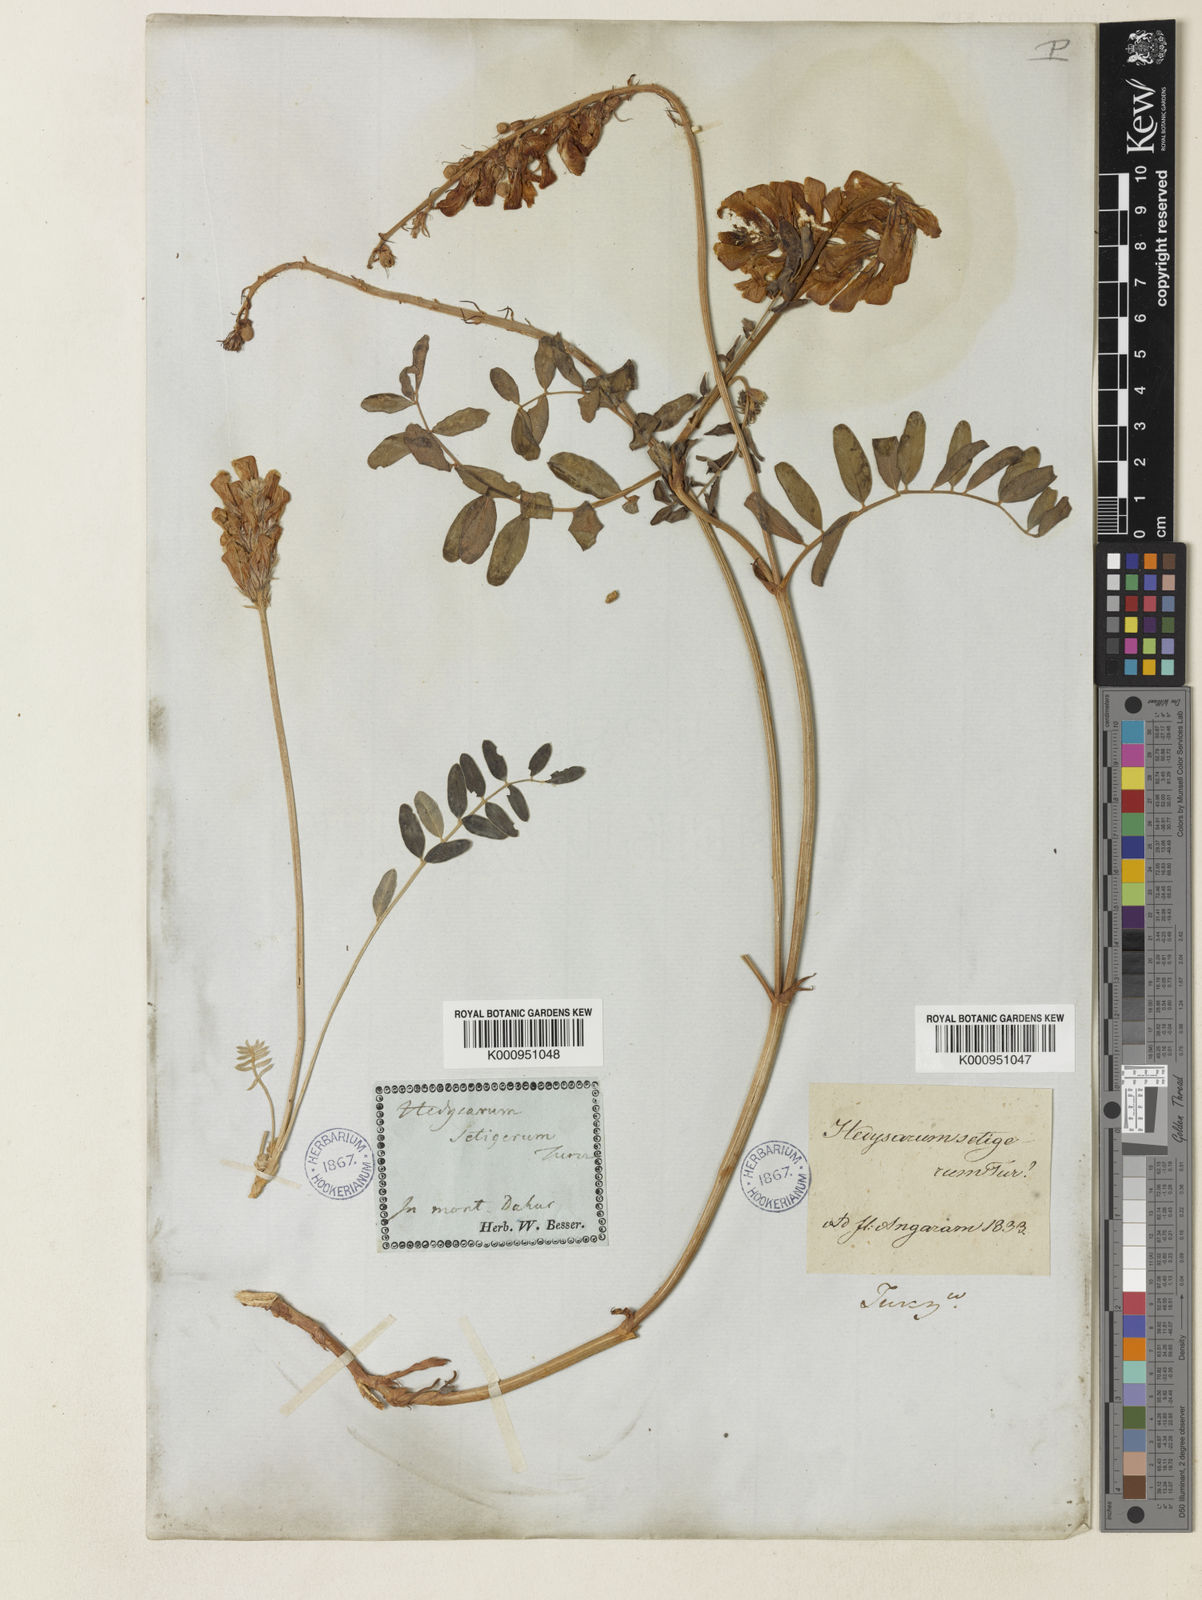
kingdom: Plantae
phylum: Tracheophyta
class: Magnoliopsida
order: Fabales
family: Fabaceae
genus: Hedysarum
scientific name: Hedysarum setigerum
